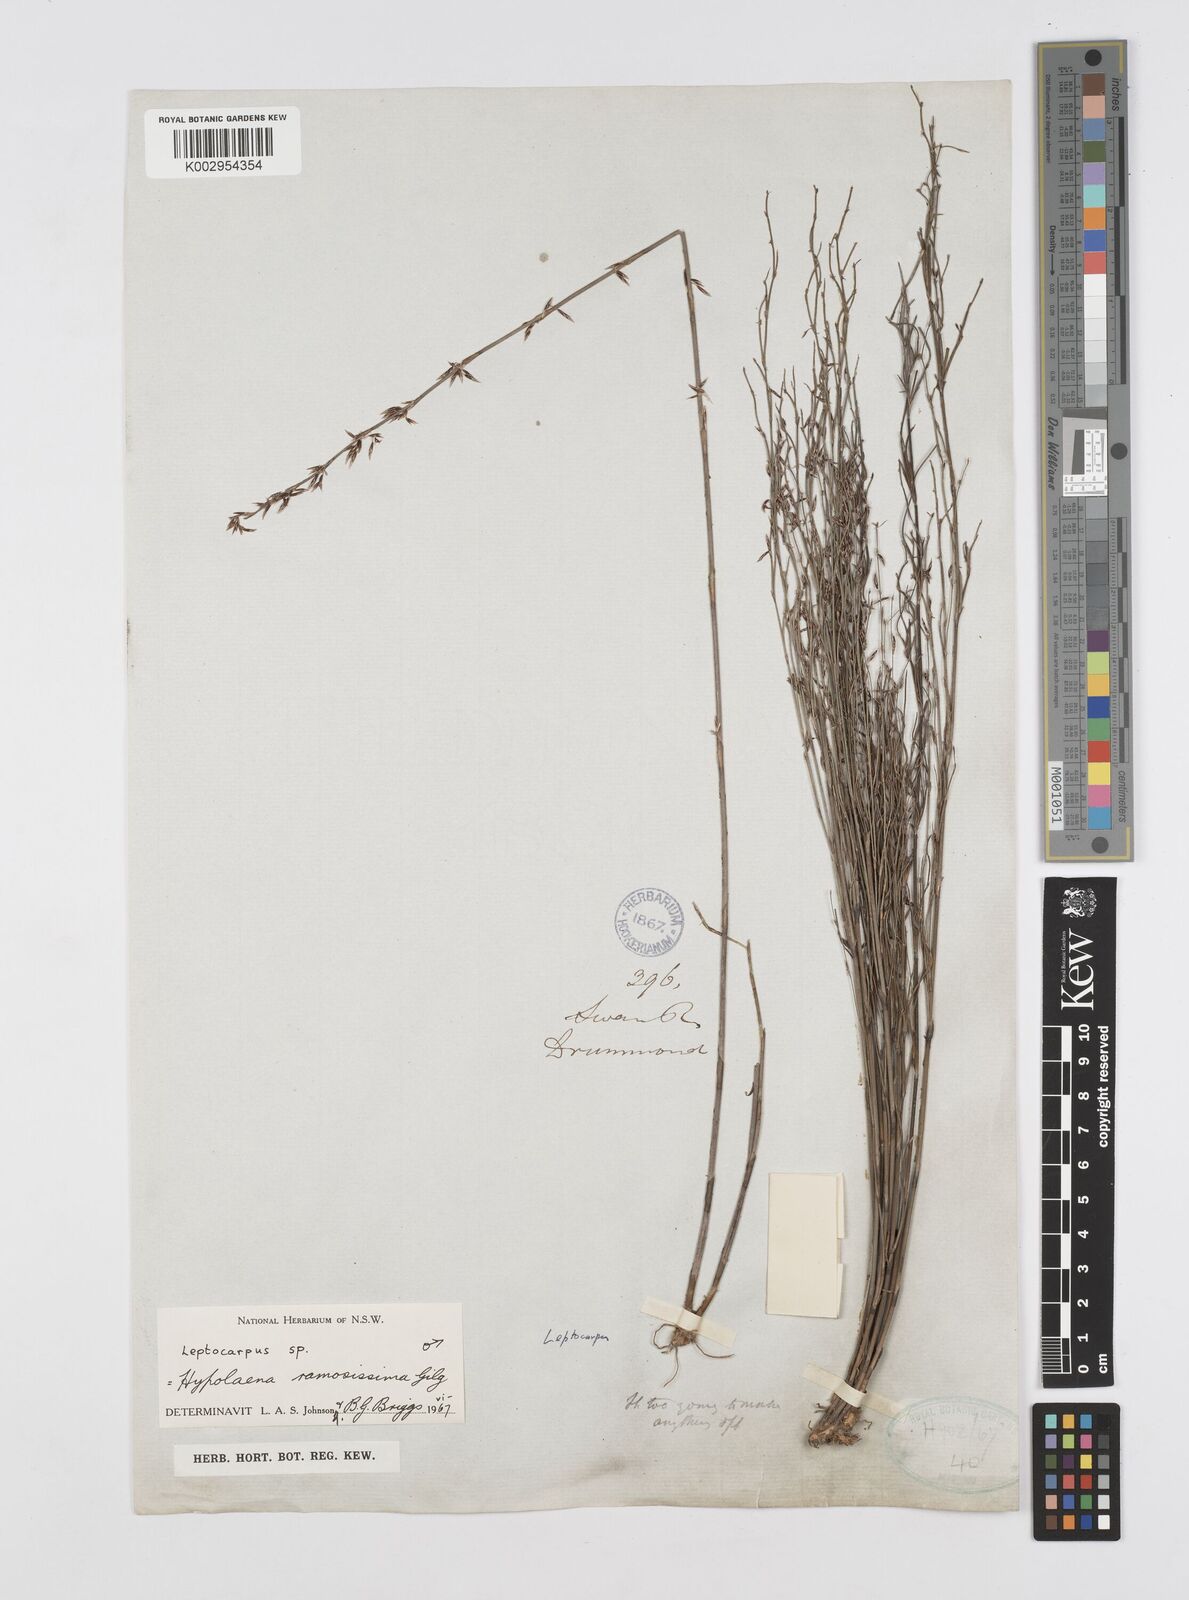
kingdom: Plantae
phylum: Tracheophyta
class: Liliopsida
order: Poales
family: Restionaceae
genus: Leptocarpus
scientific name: Leptocarpus
